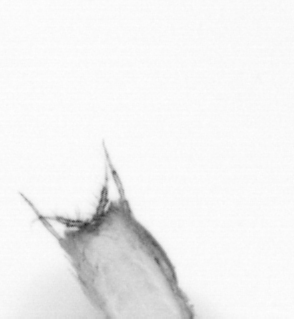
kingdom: Animalia
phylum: Arthropoda
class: Copepoda
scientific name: Copepoda
